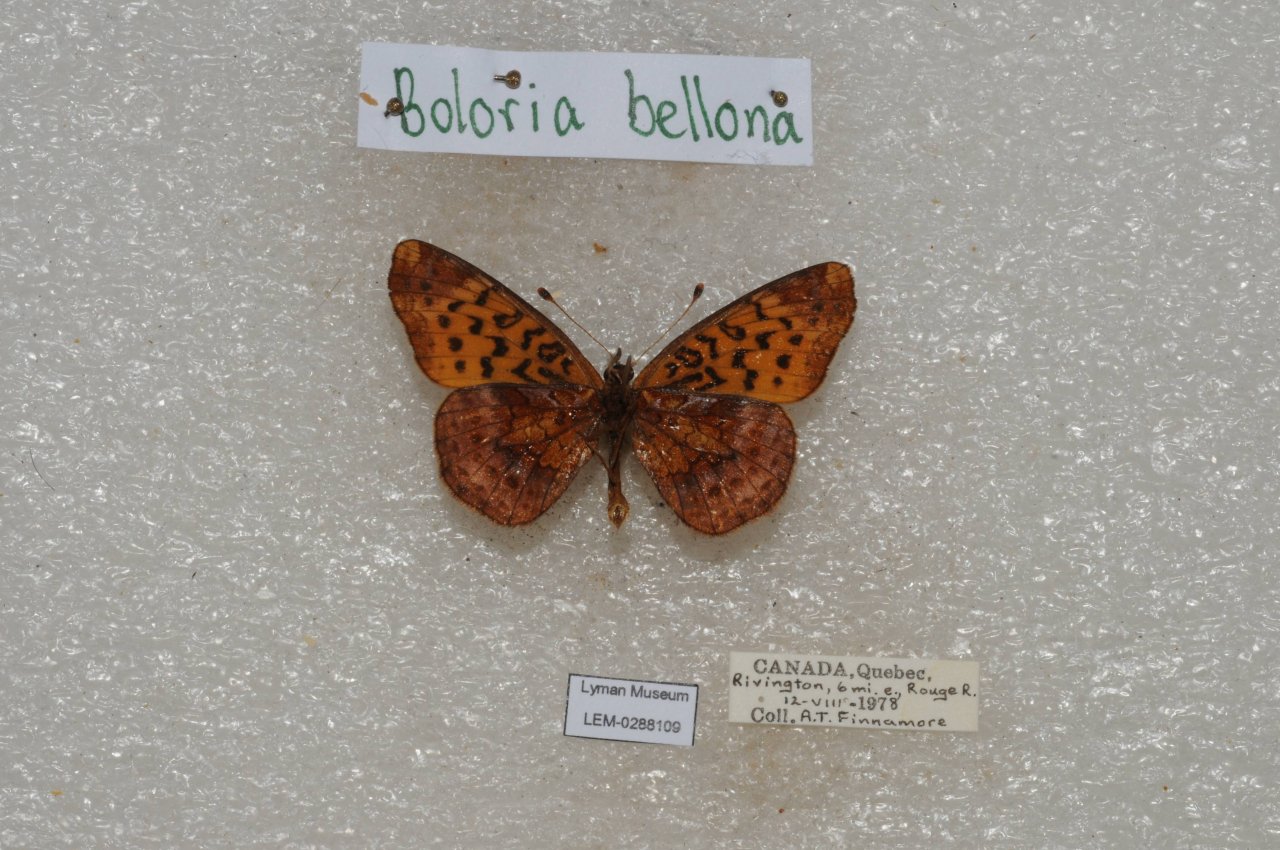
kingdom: Animalia
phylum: Arthropoda
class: Insecta
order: Lepidoptera
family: Nymphalidae
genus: Clossiana
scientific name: Clossiana toddi
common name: Meadow Fritillary
